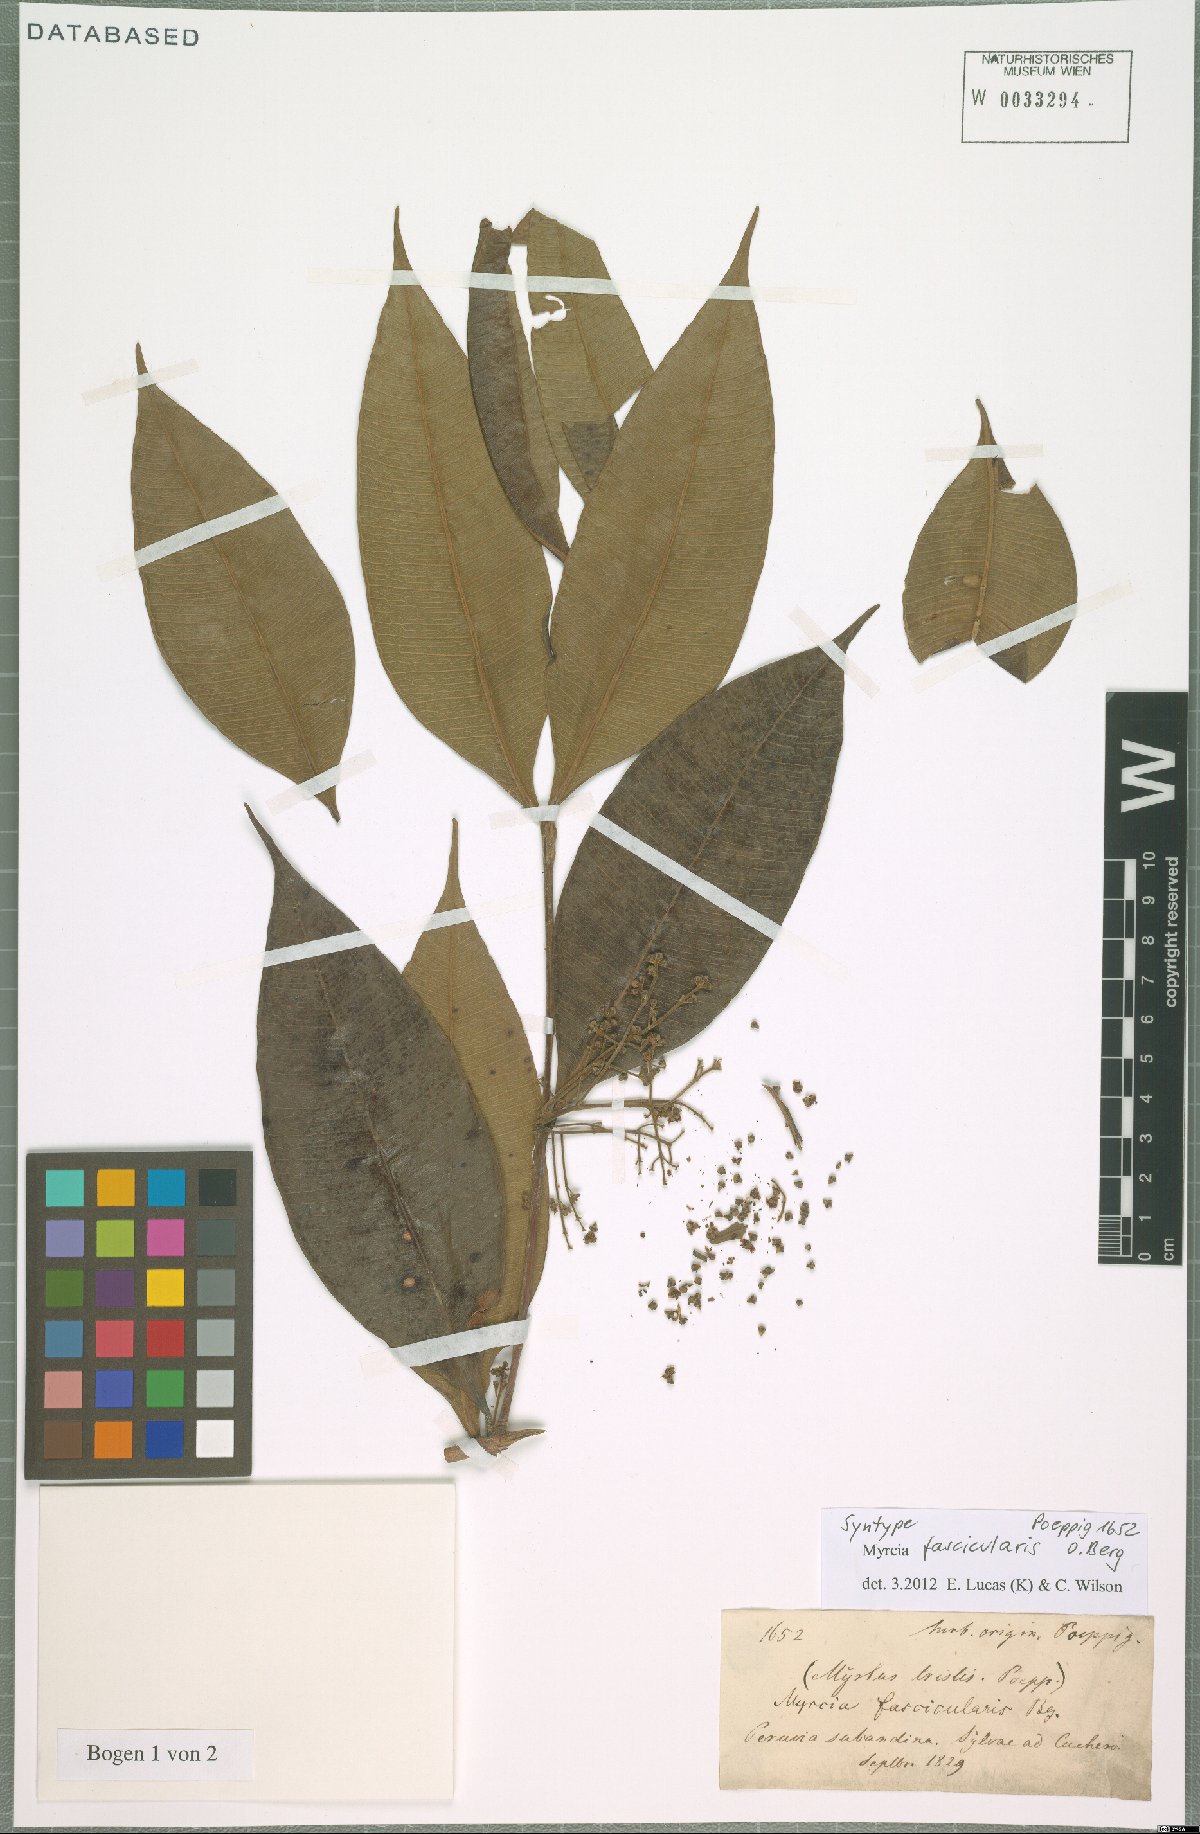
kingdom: Plantae
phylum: Tracheophyta
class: Magnoliopsida
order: Myrtales
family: Myrtaceae
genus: Myrcia
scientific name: Myrcia fascicularis
